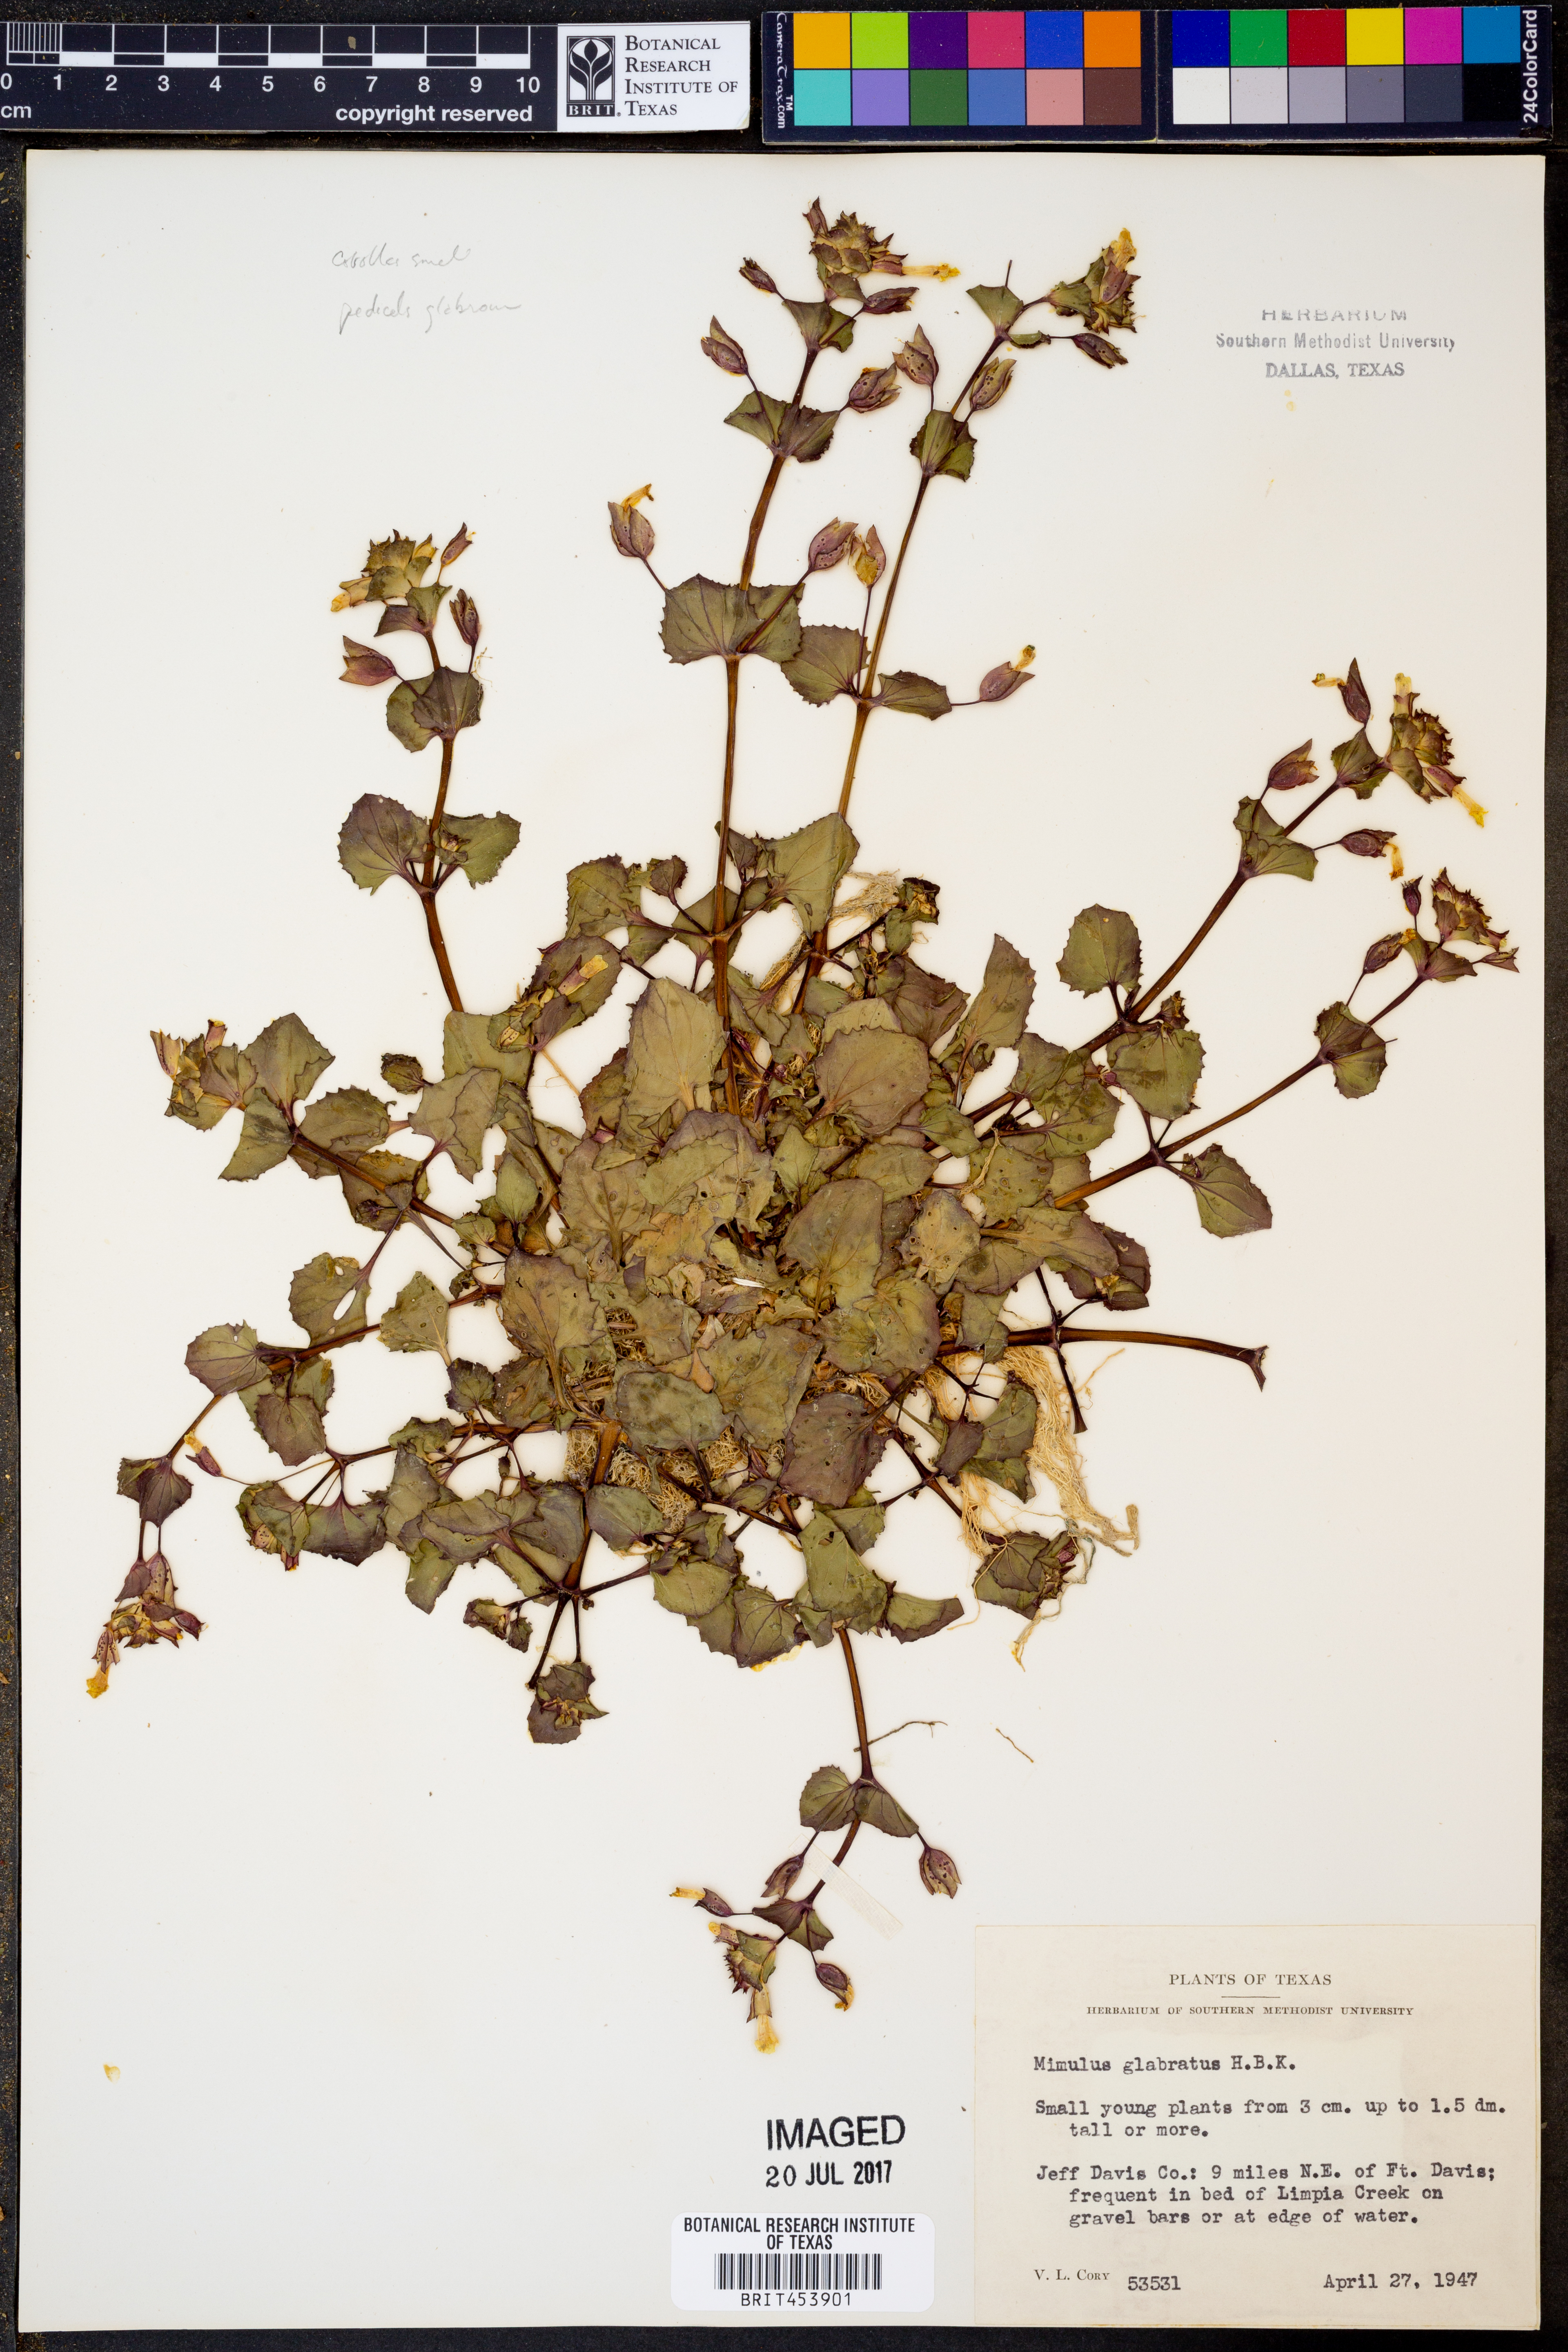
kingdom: Plantae
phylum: Tracheophyta
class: Magnoliopsida
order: Lamiales
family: Phrymaceae
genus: Erythranthe
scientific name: Erythranthe glabrata
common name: Round-leaved monkeyflower
